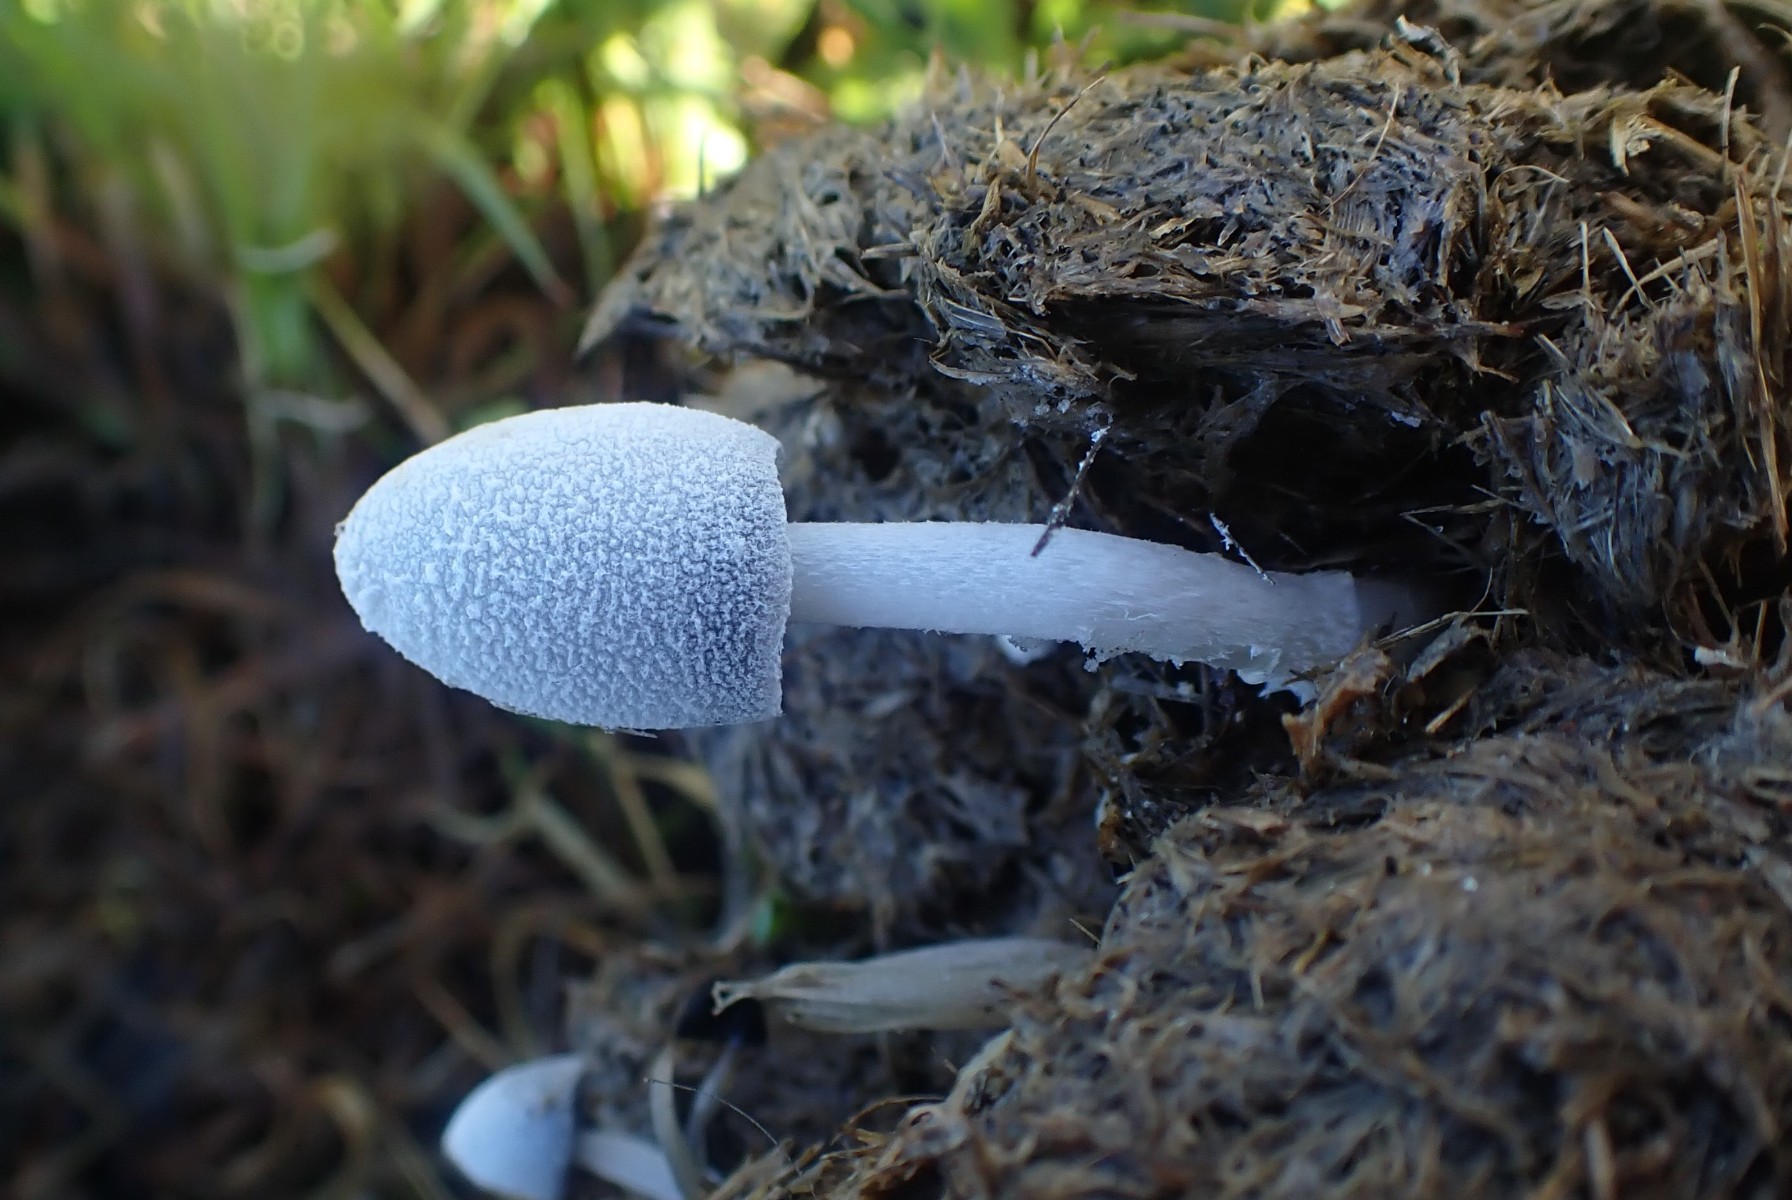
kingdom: Fungi
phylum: Basidiomycota
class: Agaricomycetes
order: Agaricales
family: Psathyrellaceae
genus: Coprinopsis
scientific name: Coprinopsis nivea
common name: snehvid blækhat
